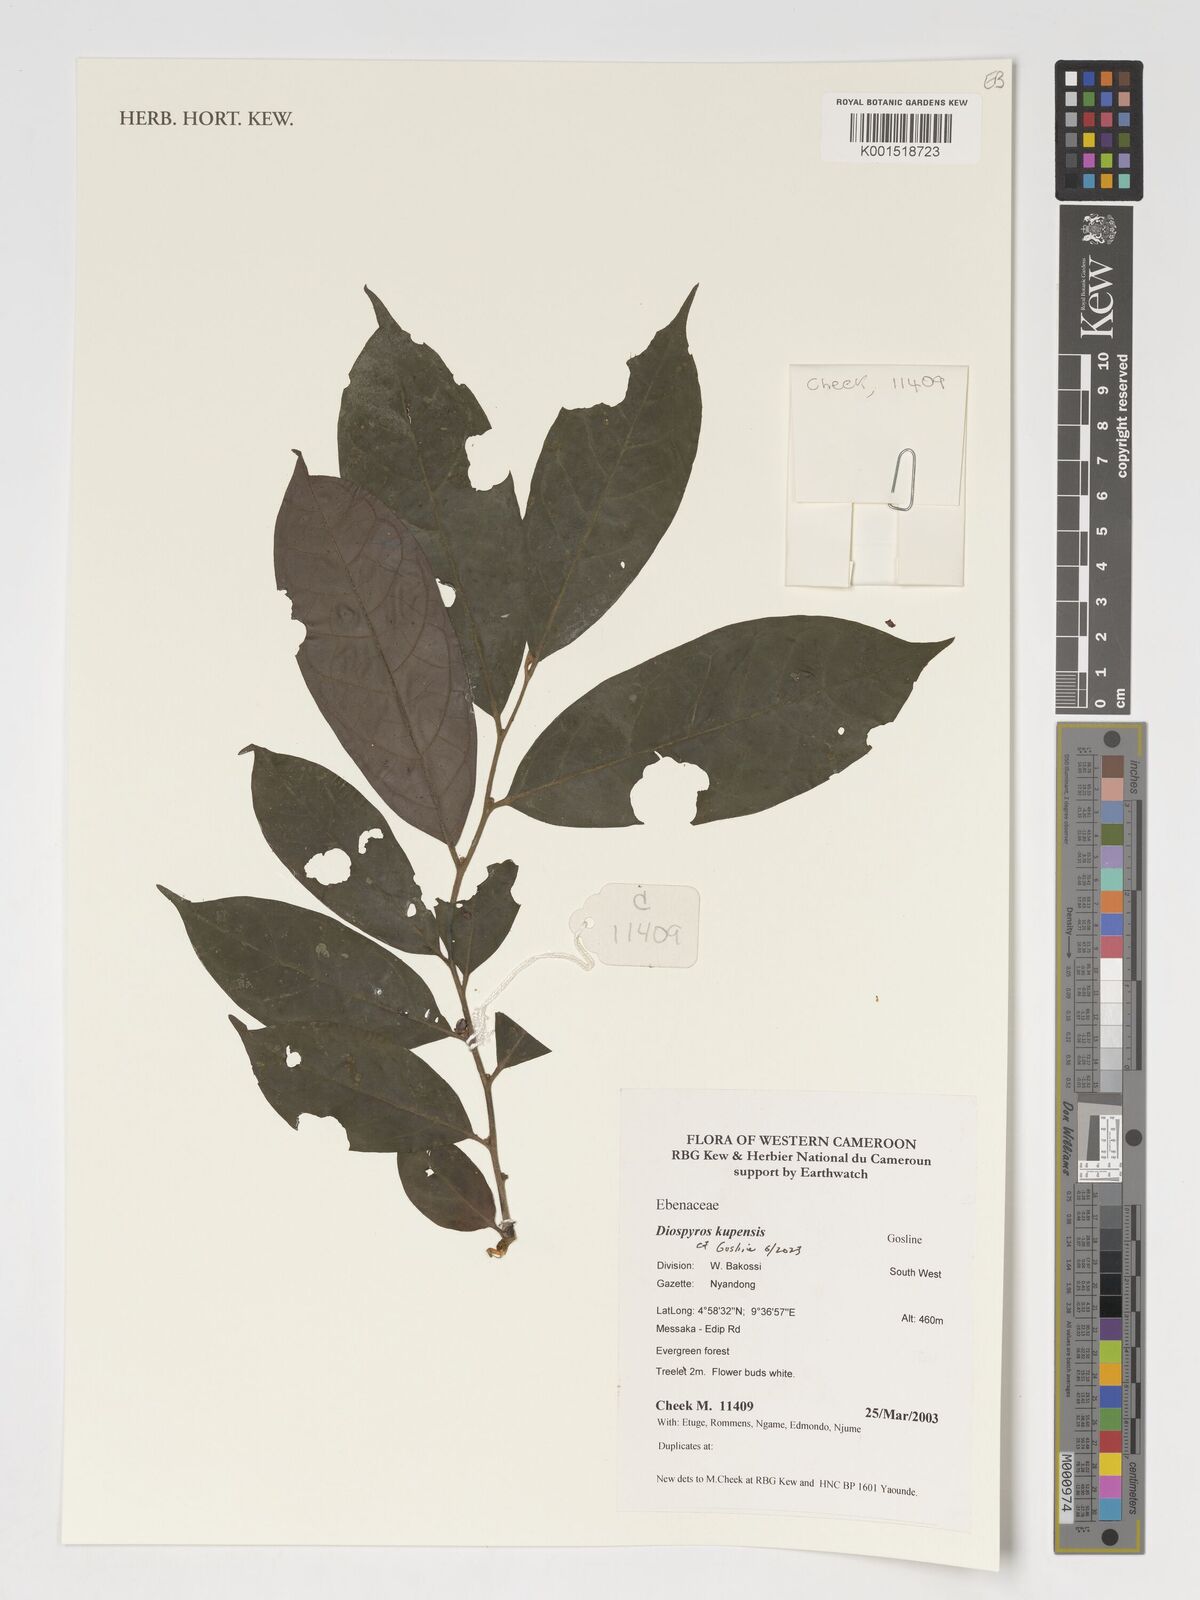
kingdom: Plantae
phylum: Tracheophyta
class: Magnoliopsida
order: Ericales
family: Ebenaceae
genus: Diospyros
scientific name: Diospyros kupensis
